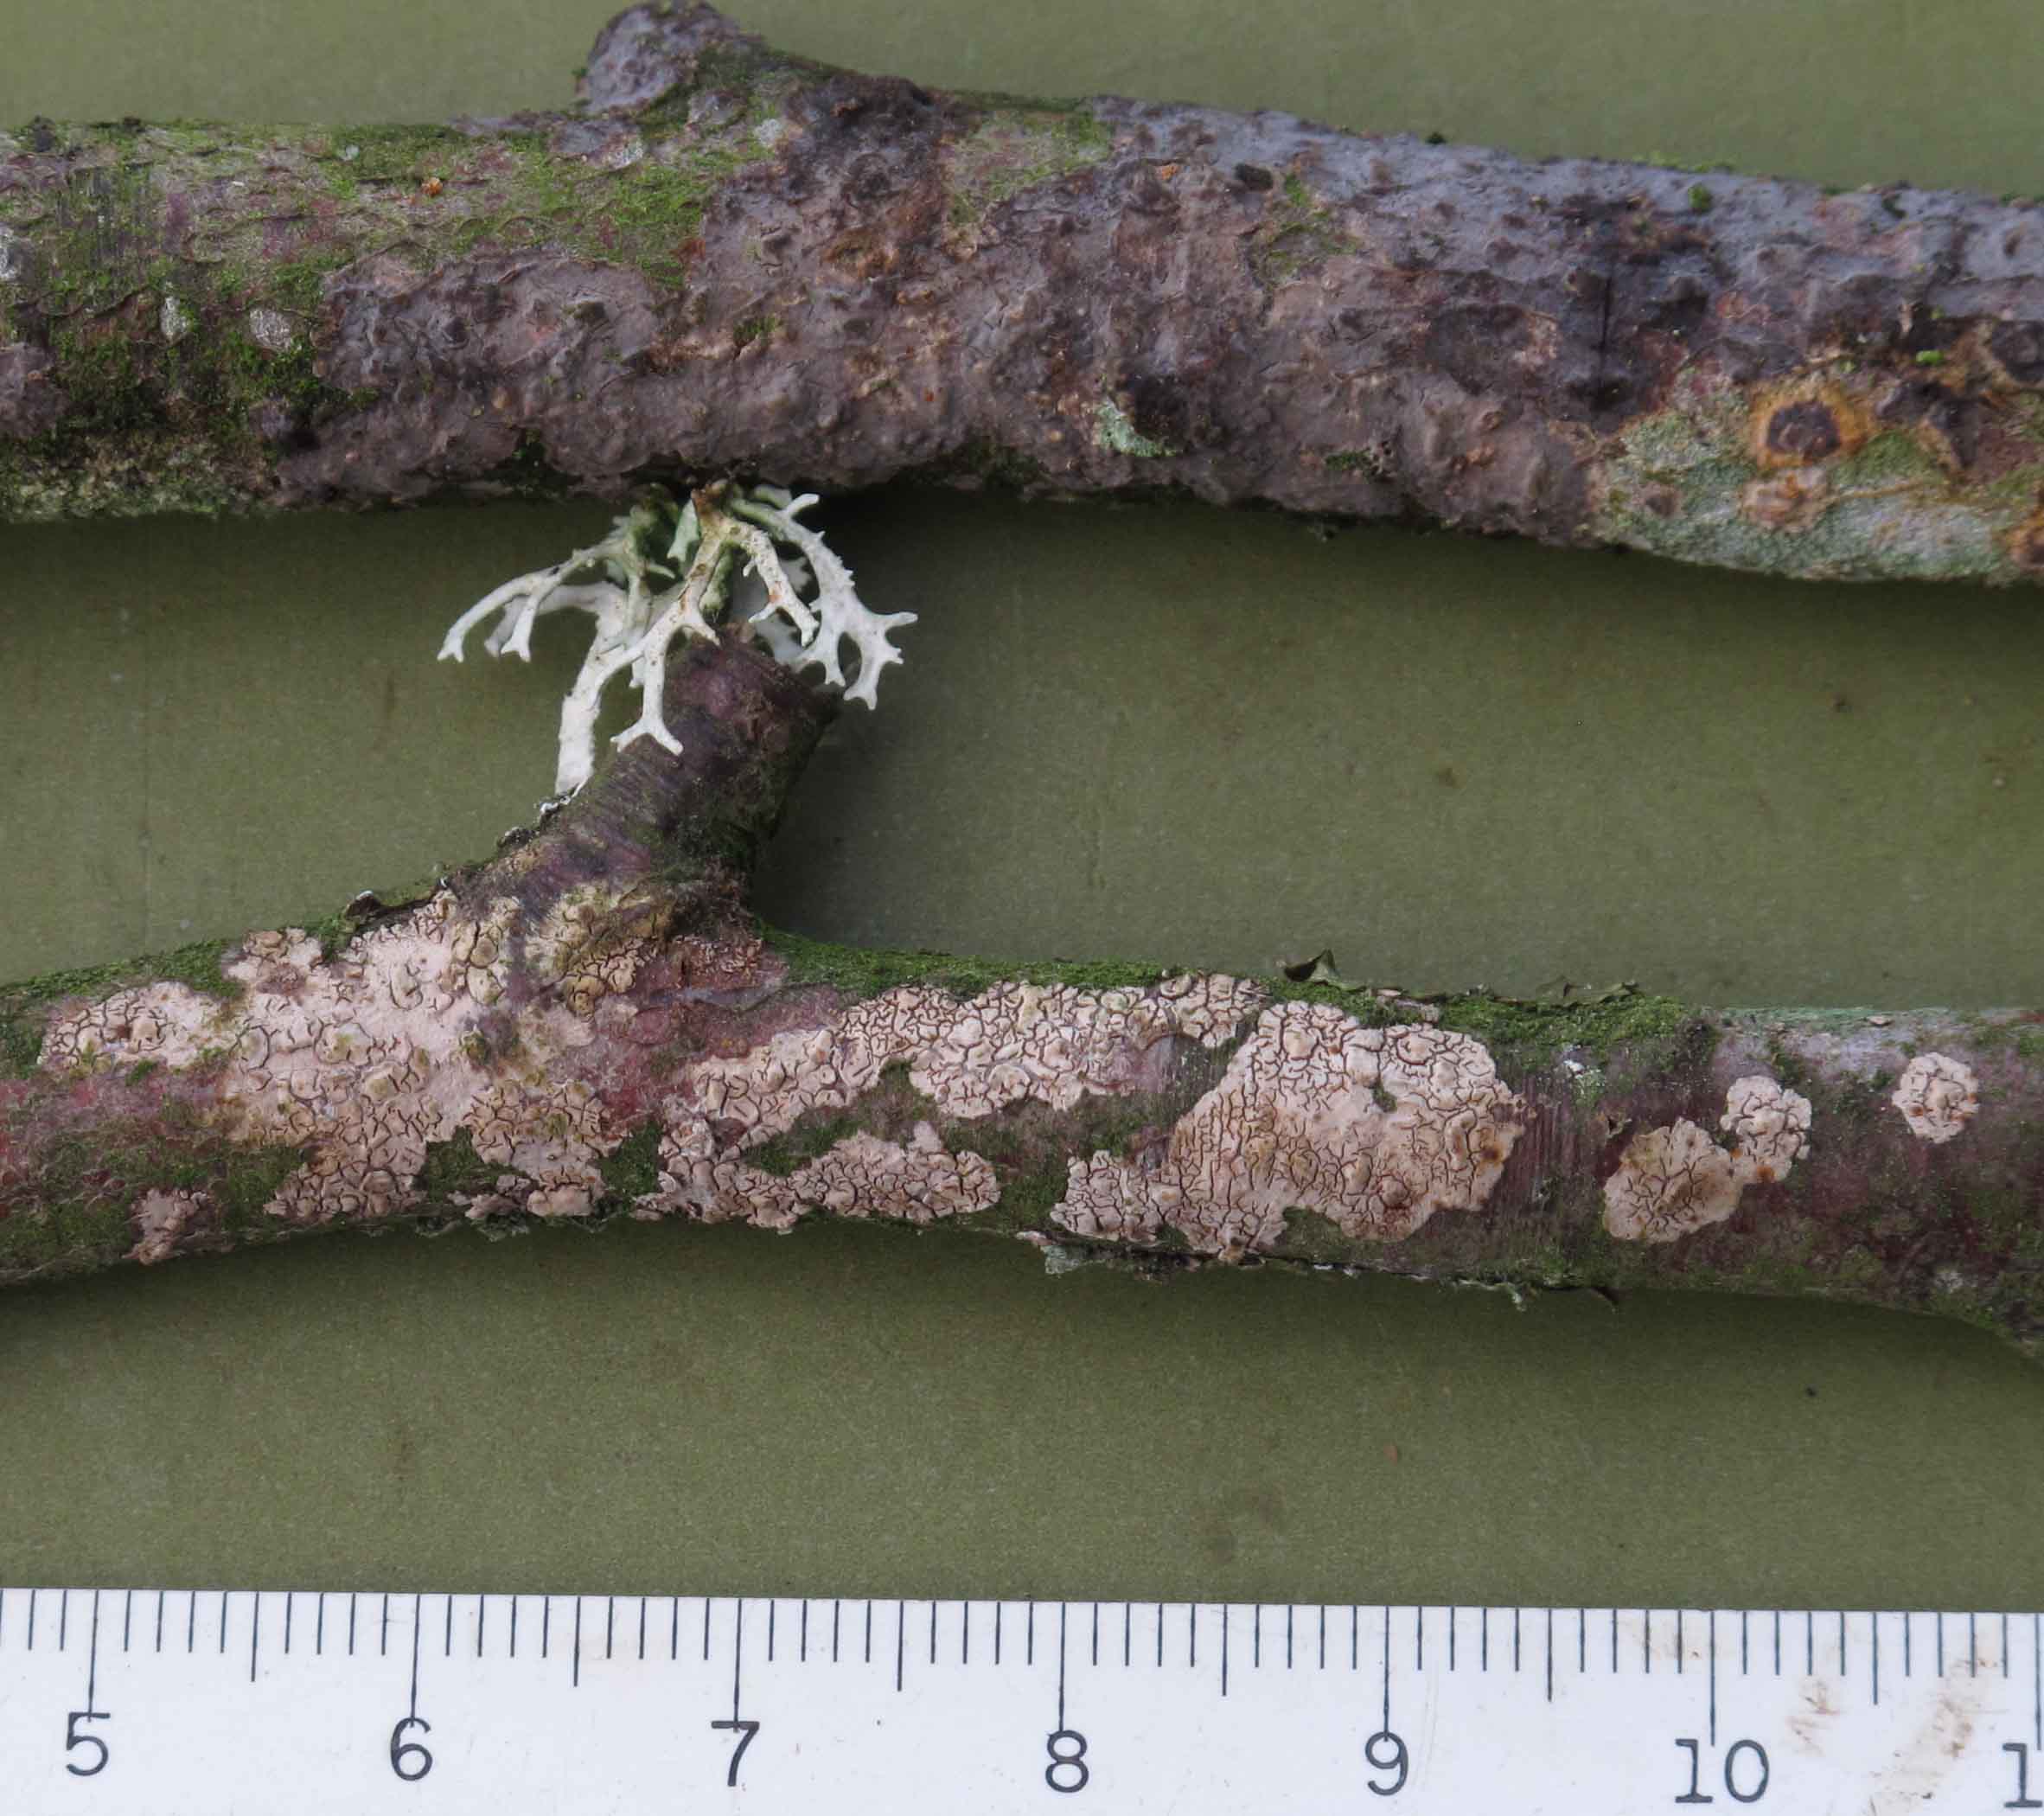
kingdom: Fungi
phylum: Basidiomycota
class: Agaricomycetes
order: Russulales
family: Peniophoraceae
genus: Peniophora
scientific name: Peniophora cinerea
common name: grå voksskind
